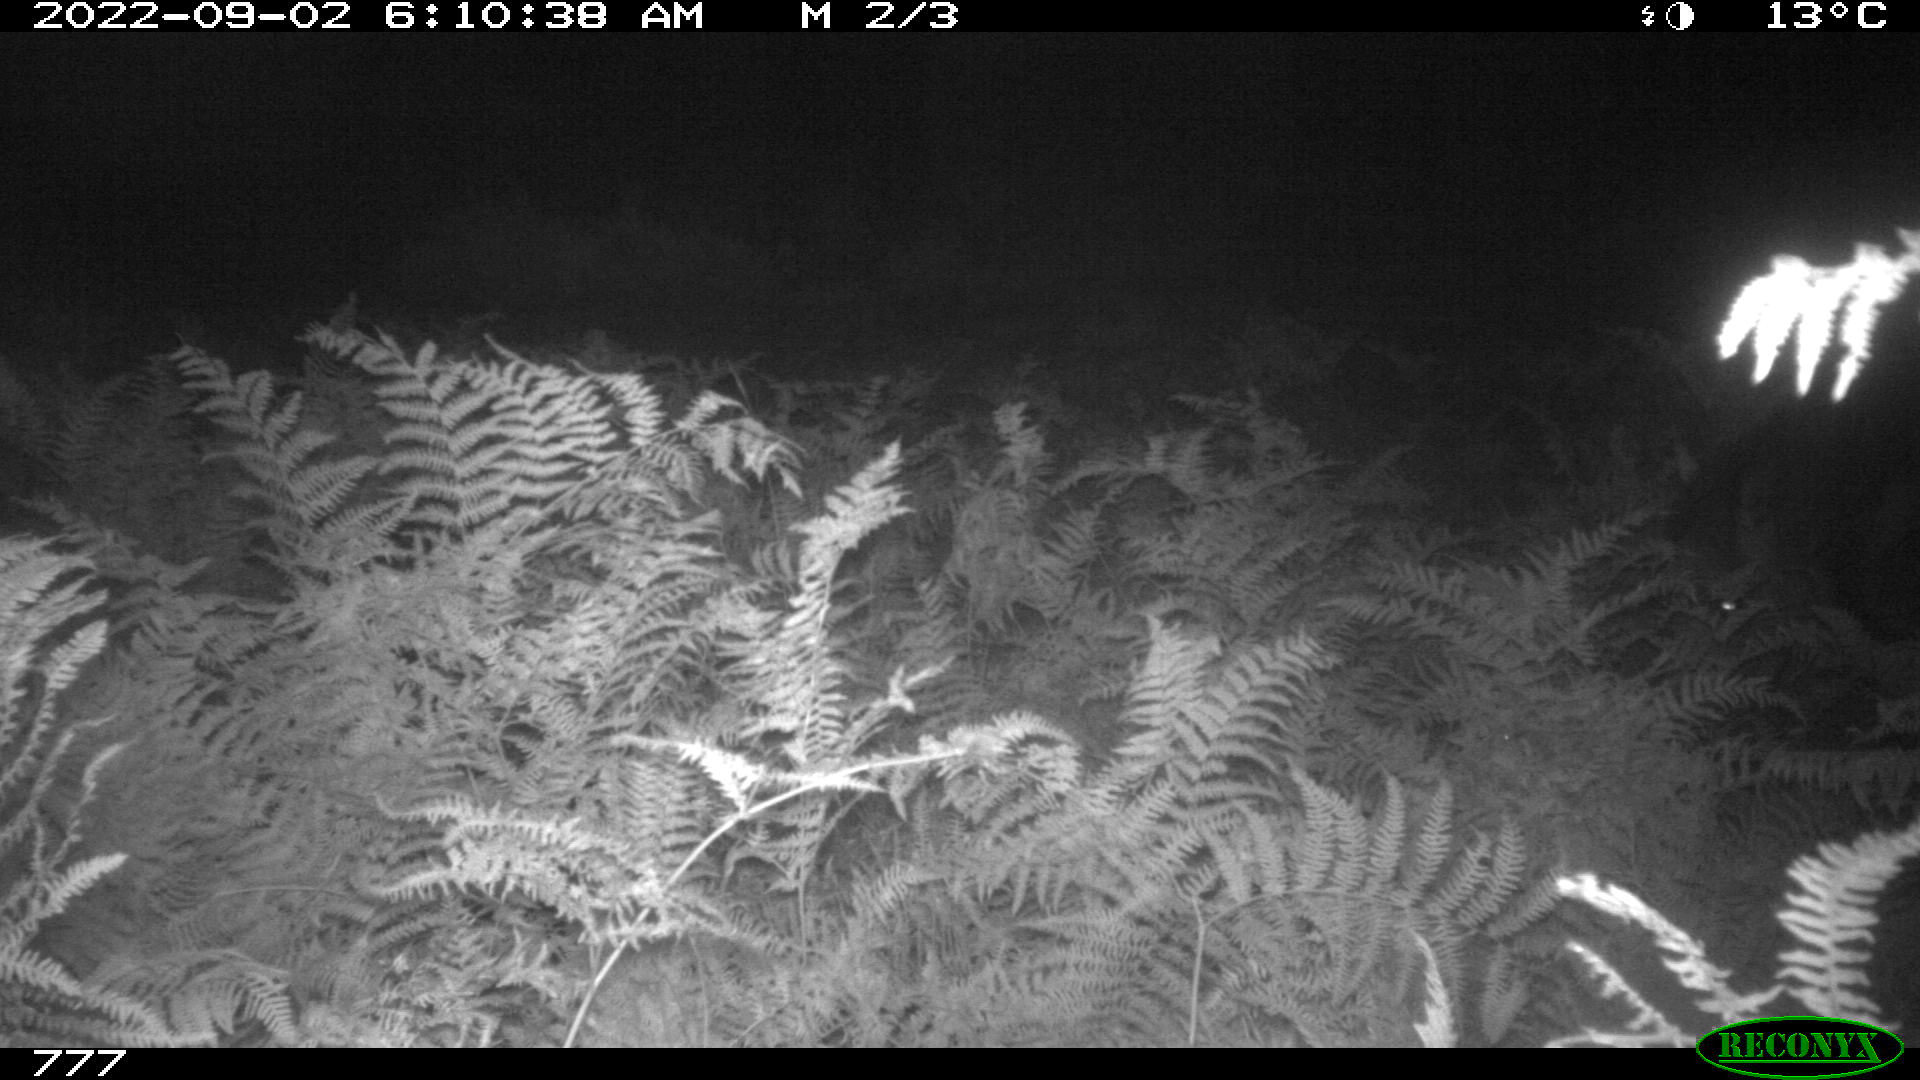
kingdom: Animalia
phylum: Chordata
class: Mammalia
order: Perissodactyla
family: Equidae
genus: Equus
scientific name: Equus caballus
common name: Horse
